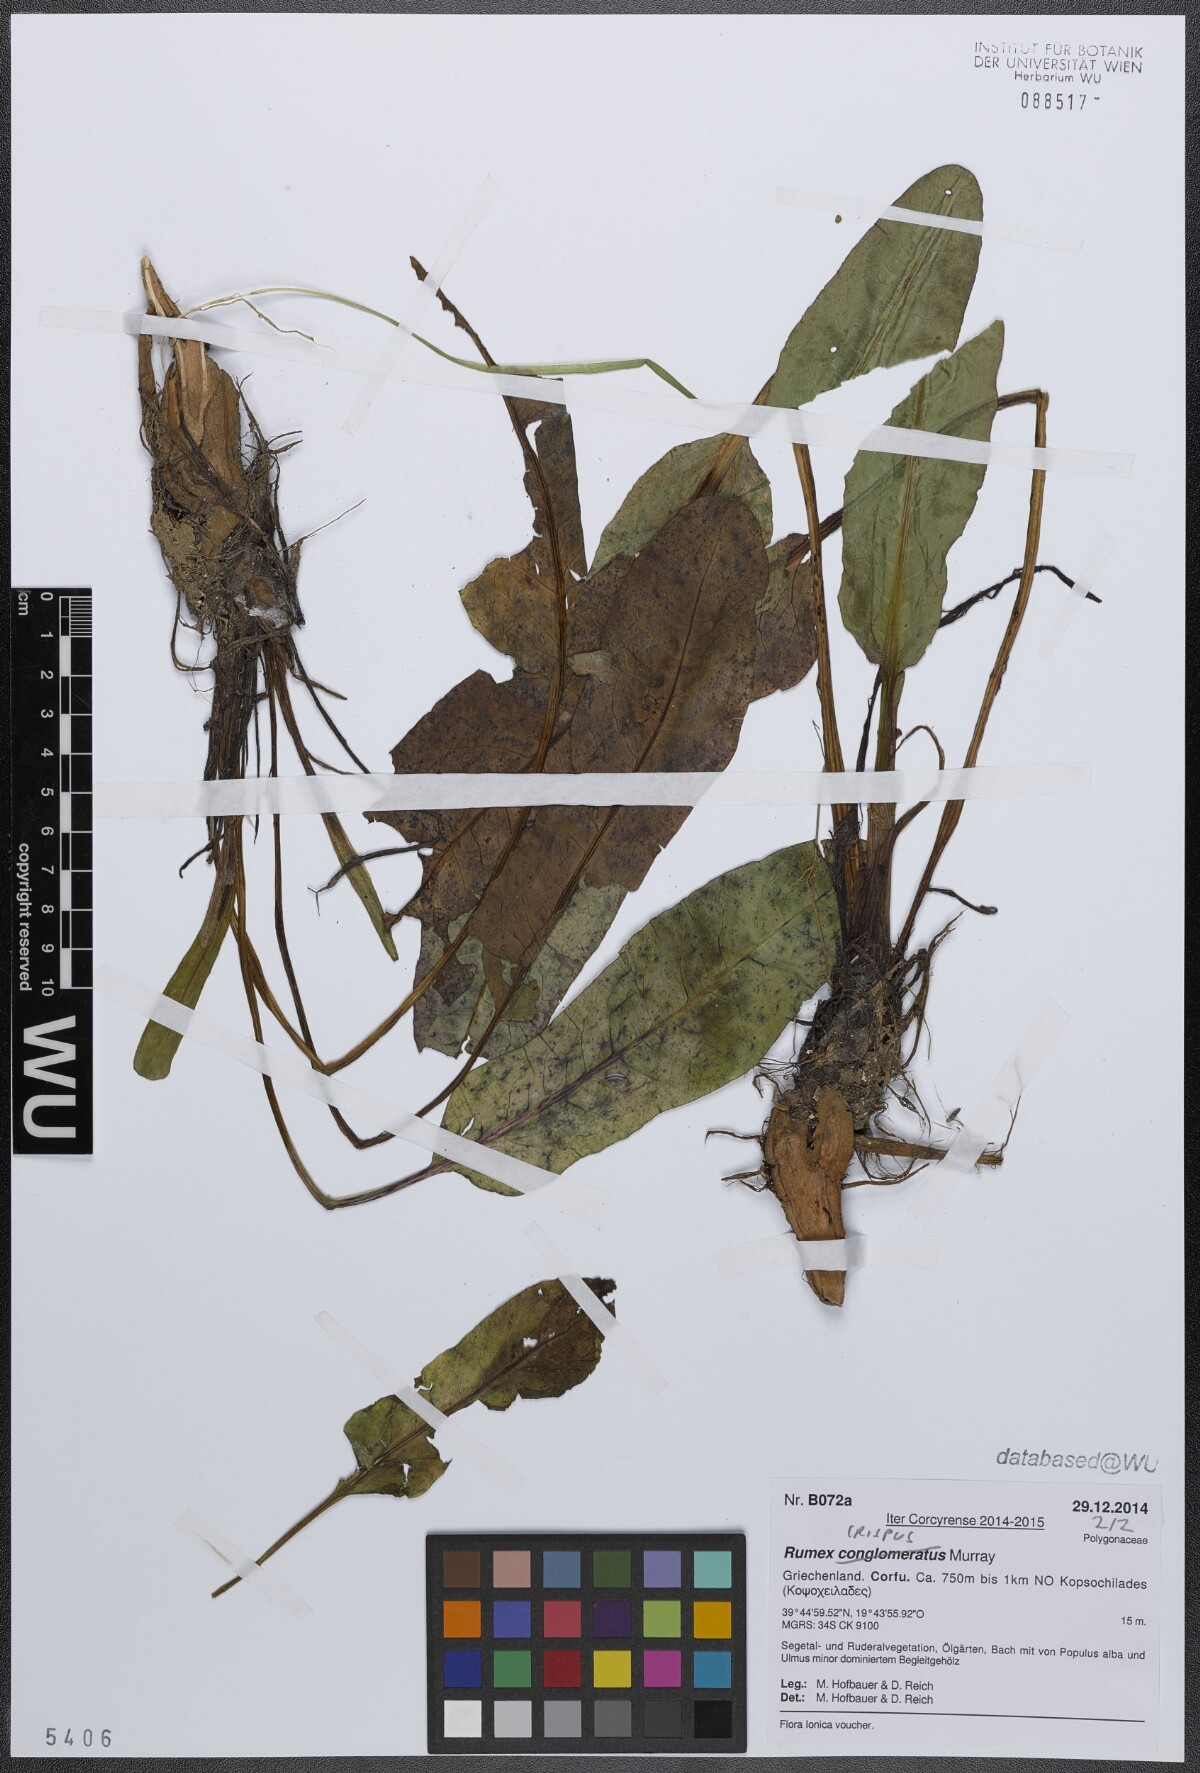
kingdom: Plantae
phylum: Tracheophyta
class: Magnoliopsida
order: Caryophyllales
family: Polygonaceae
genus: Rumex
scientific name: Rumex crispus
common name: Curled dock
